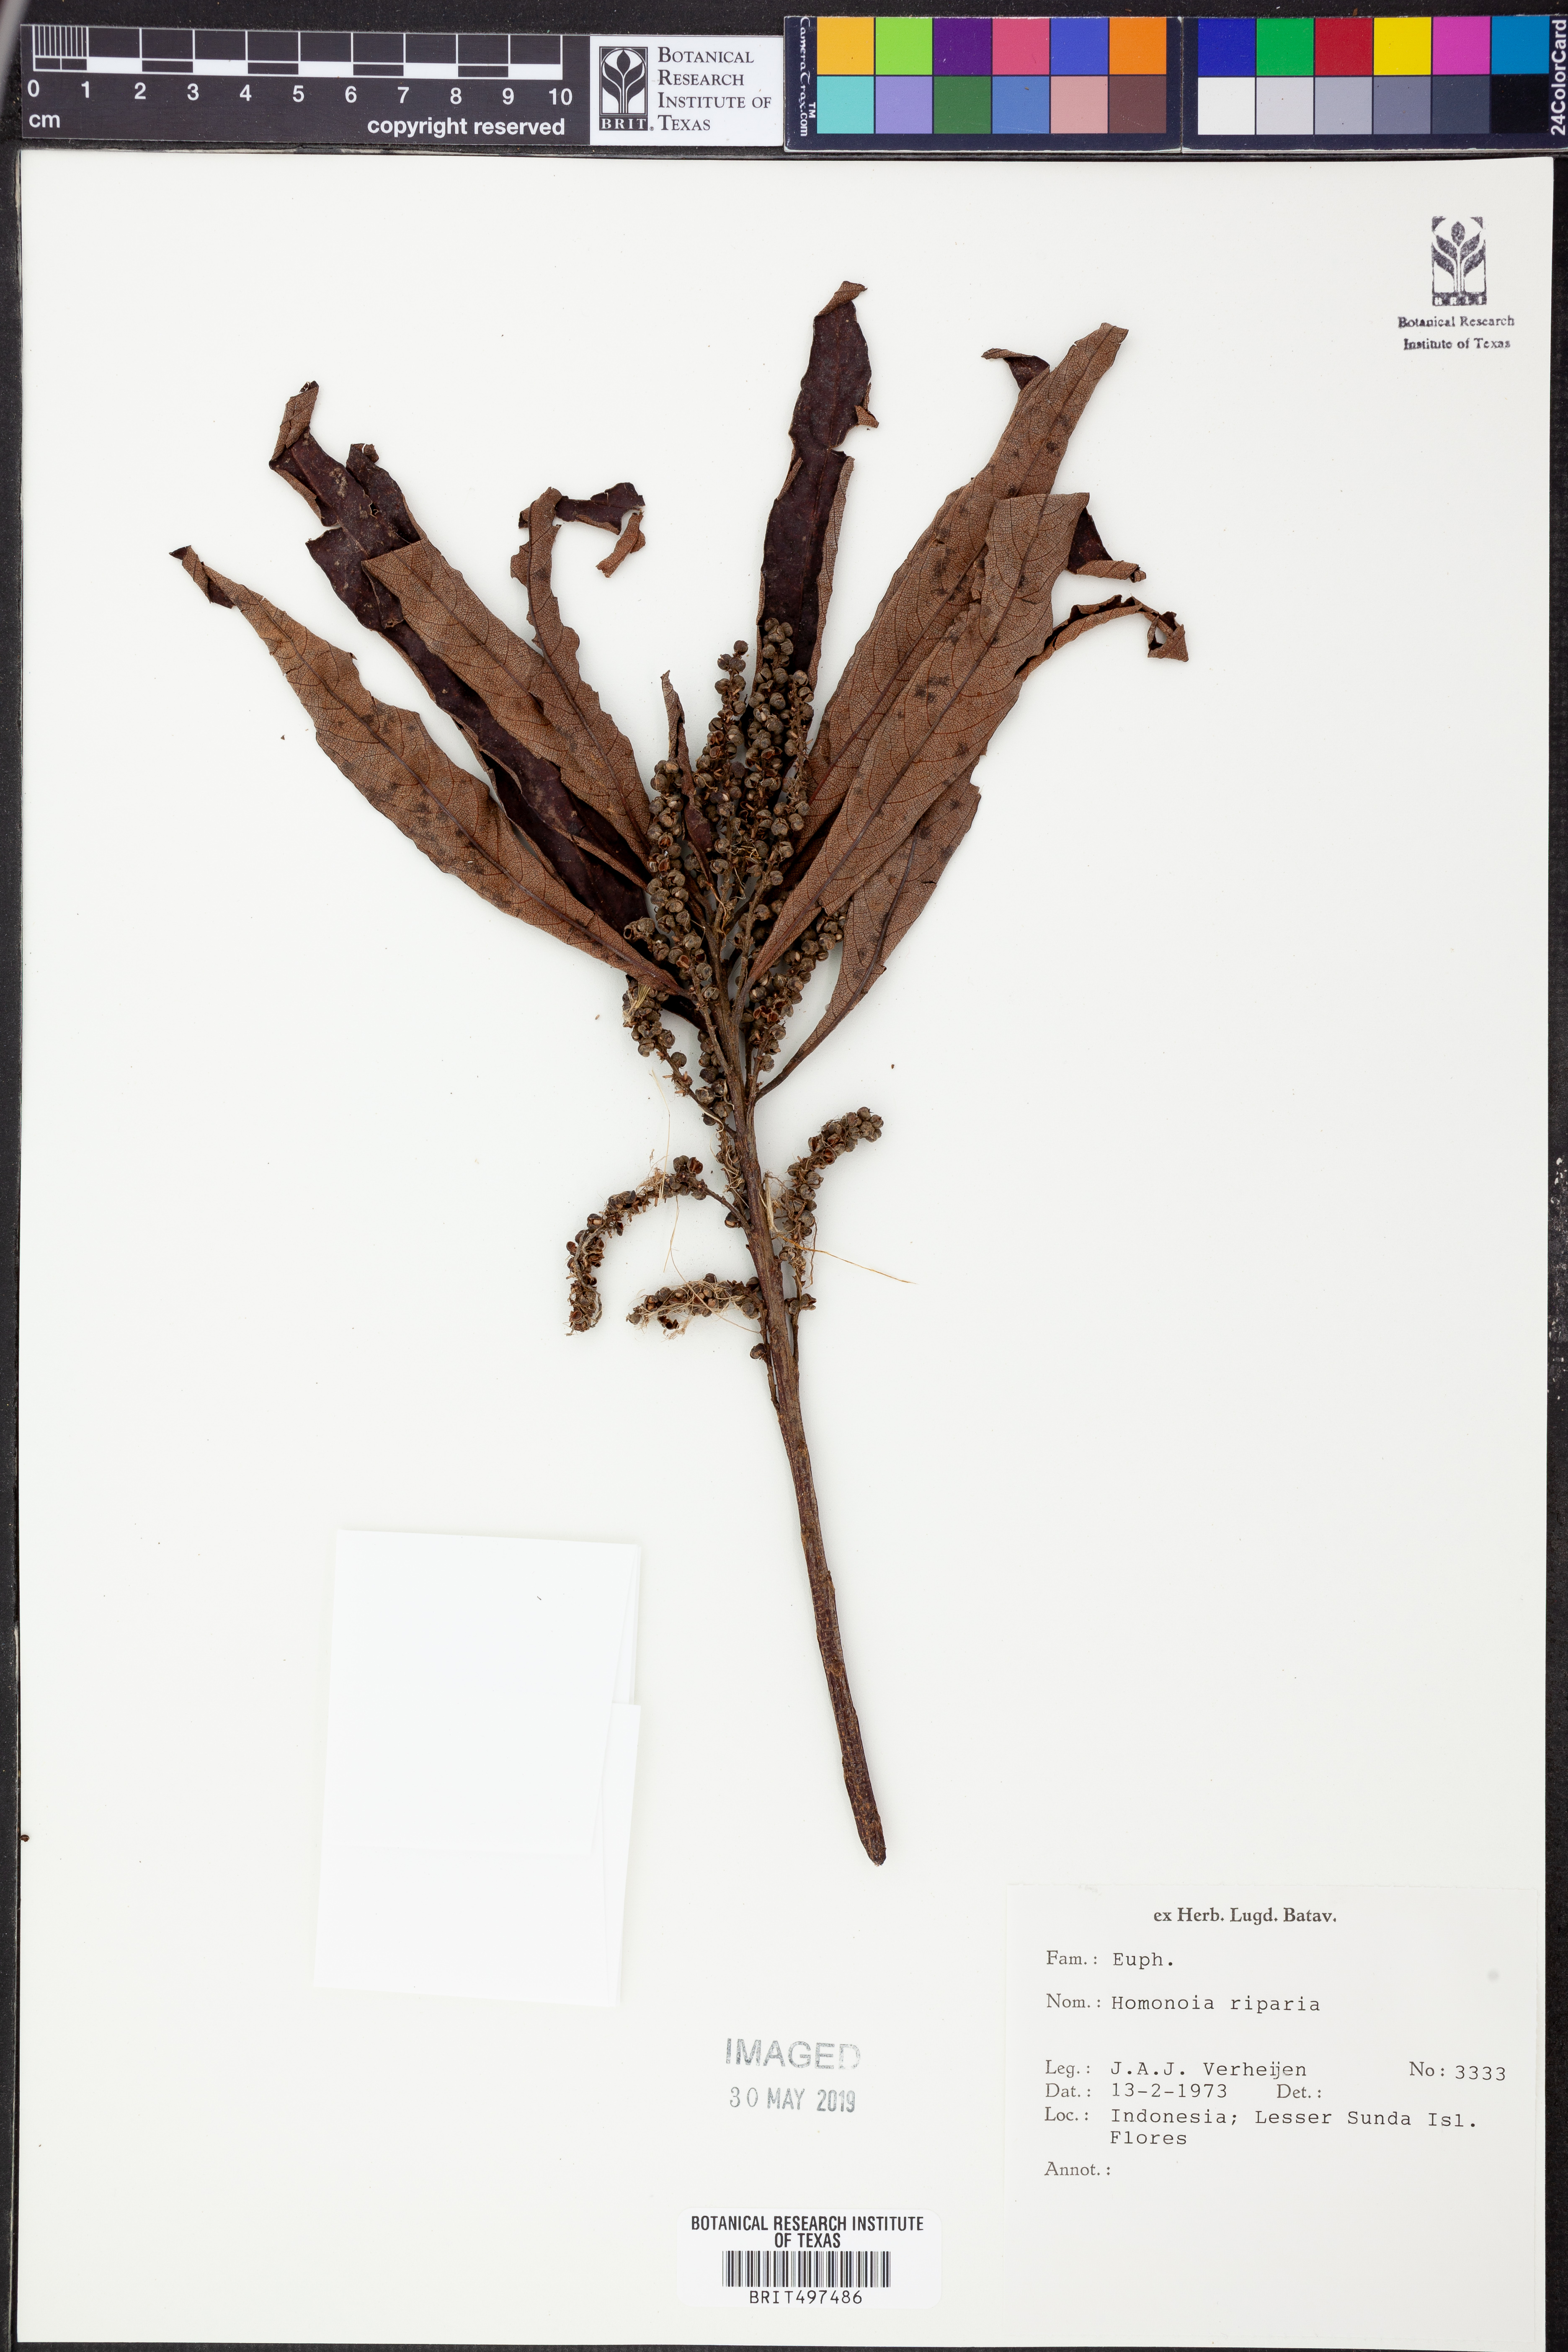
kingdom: Plantae
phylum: Tracheophyta
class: Magnoliopsida
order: Malpighiales
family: Euphorbiaceae
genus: Homonoia
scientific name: Homonoia riparia
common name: Willow-leaved water croton
